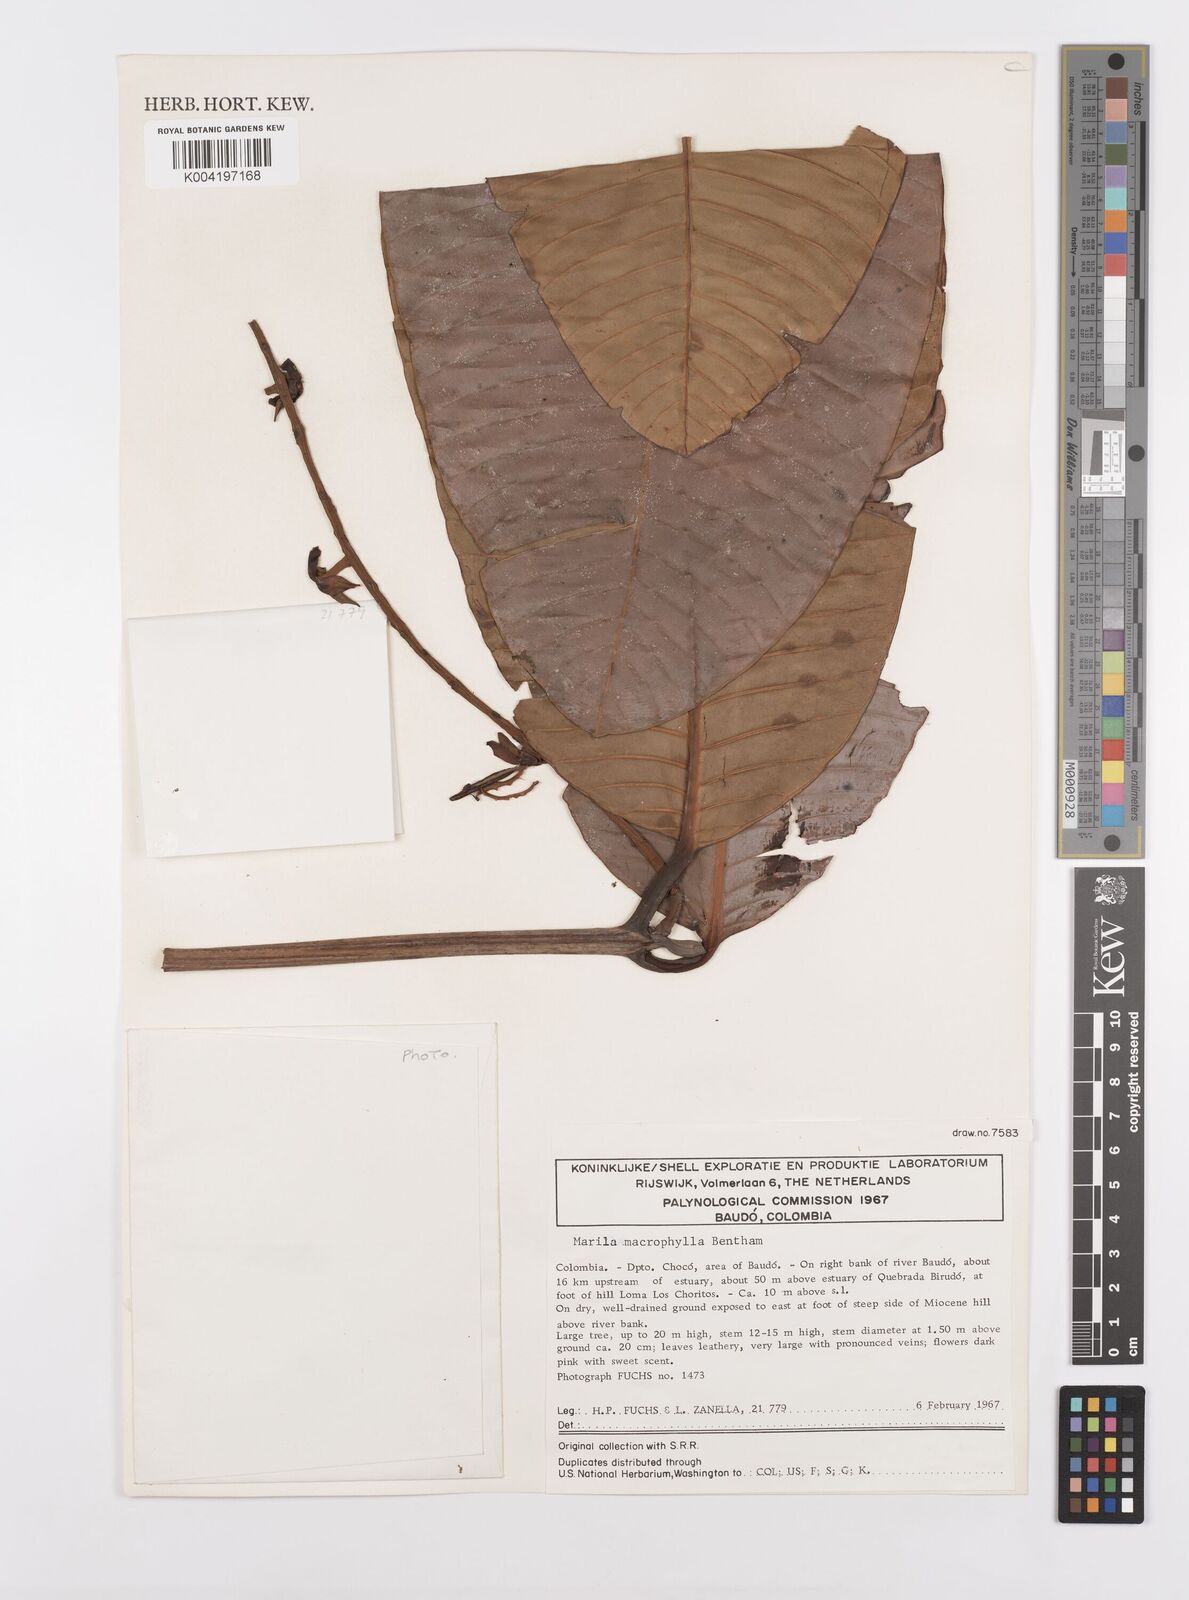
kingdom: Plantae
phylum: Tracheophyta
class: Magnoliopsida
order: Malpighiales
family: Calophyllaceae
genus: Marila
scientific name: Marila macrophylla
